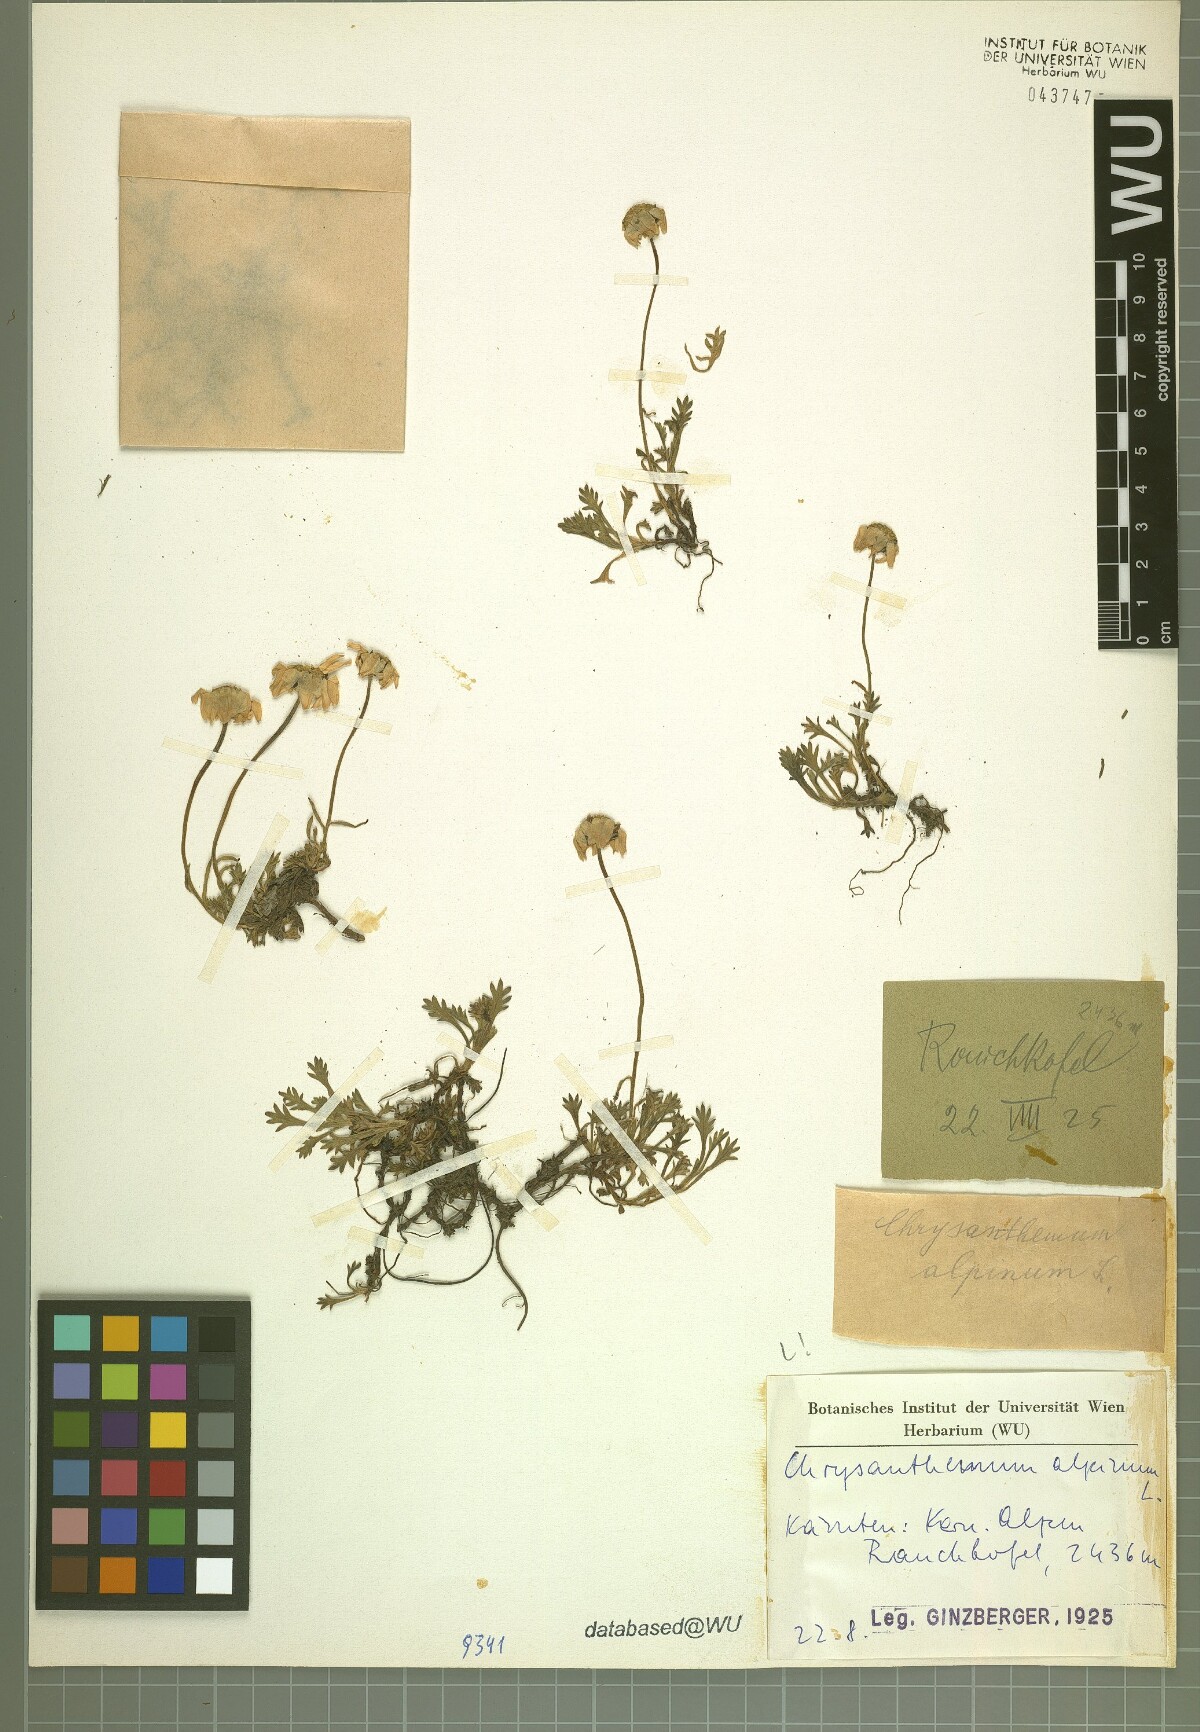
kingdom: Plantae
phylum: Tracheophyta
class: Magnoliopsida
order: Asterales
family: Asteraceae
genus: Leucanthemopsis
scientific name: Leucanthemopsis alpina
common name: Alpine moon daisy
